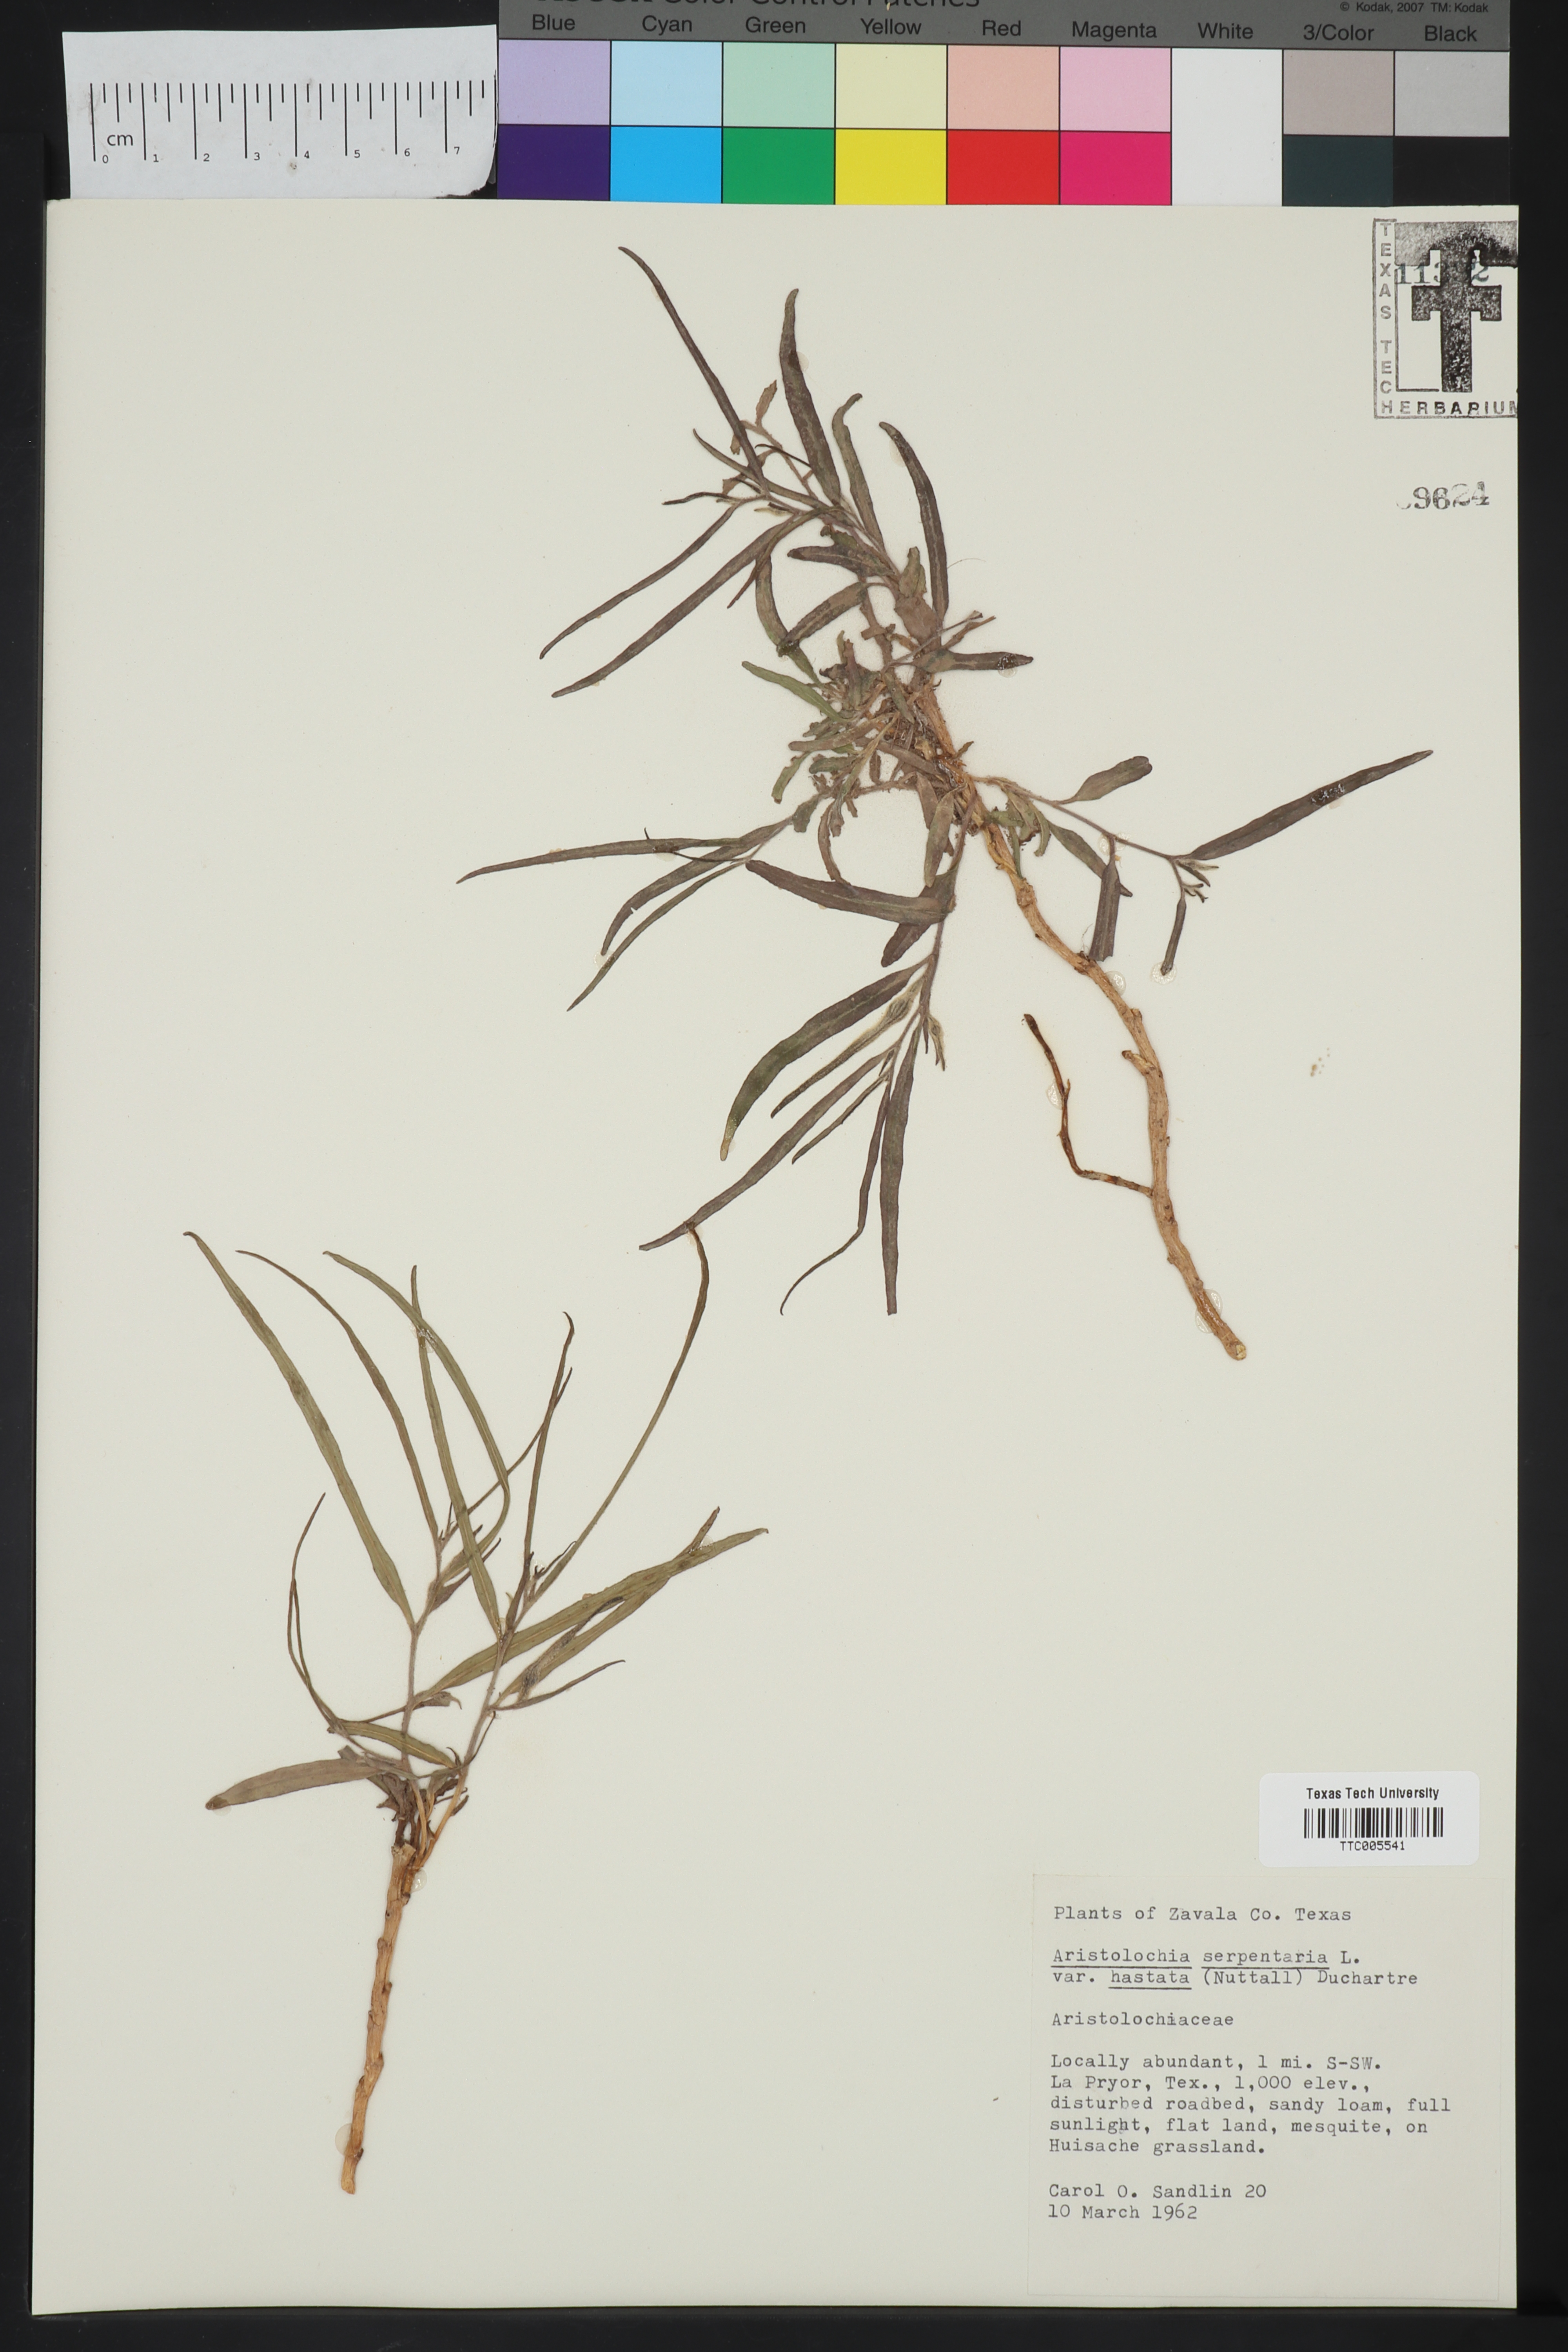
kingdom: Plantae
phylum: Tracheophyta
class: Magnoliopsida
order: Piperales
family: Aristolochiaceae
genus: Endodeca
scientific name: Endodeca serpentaria
